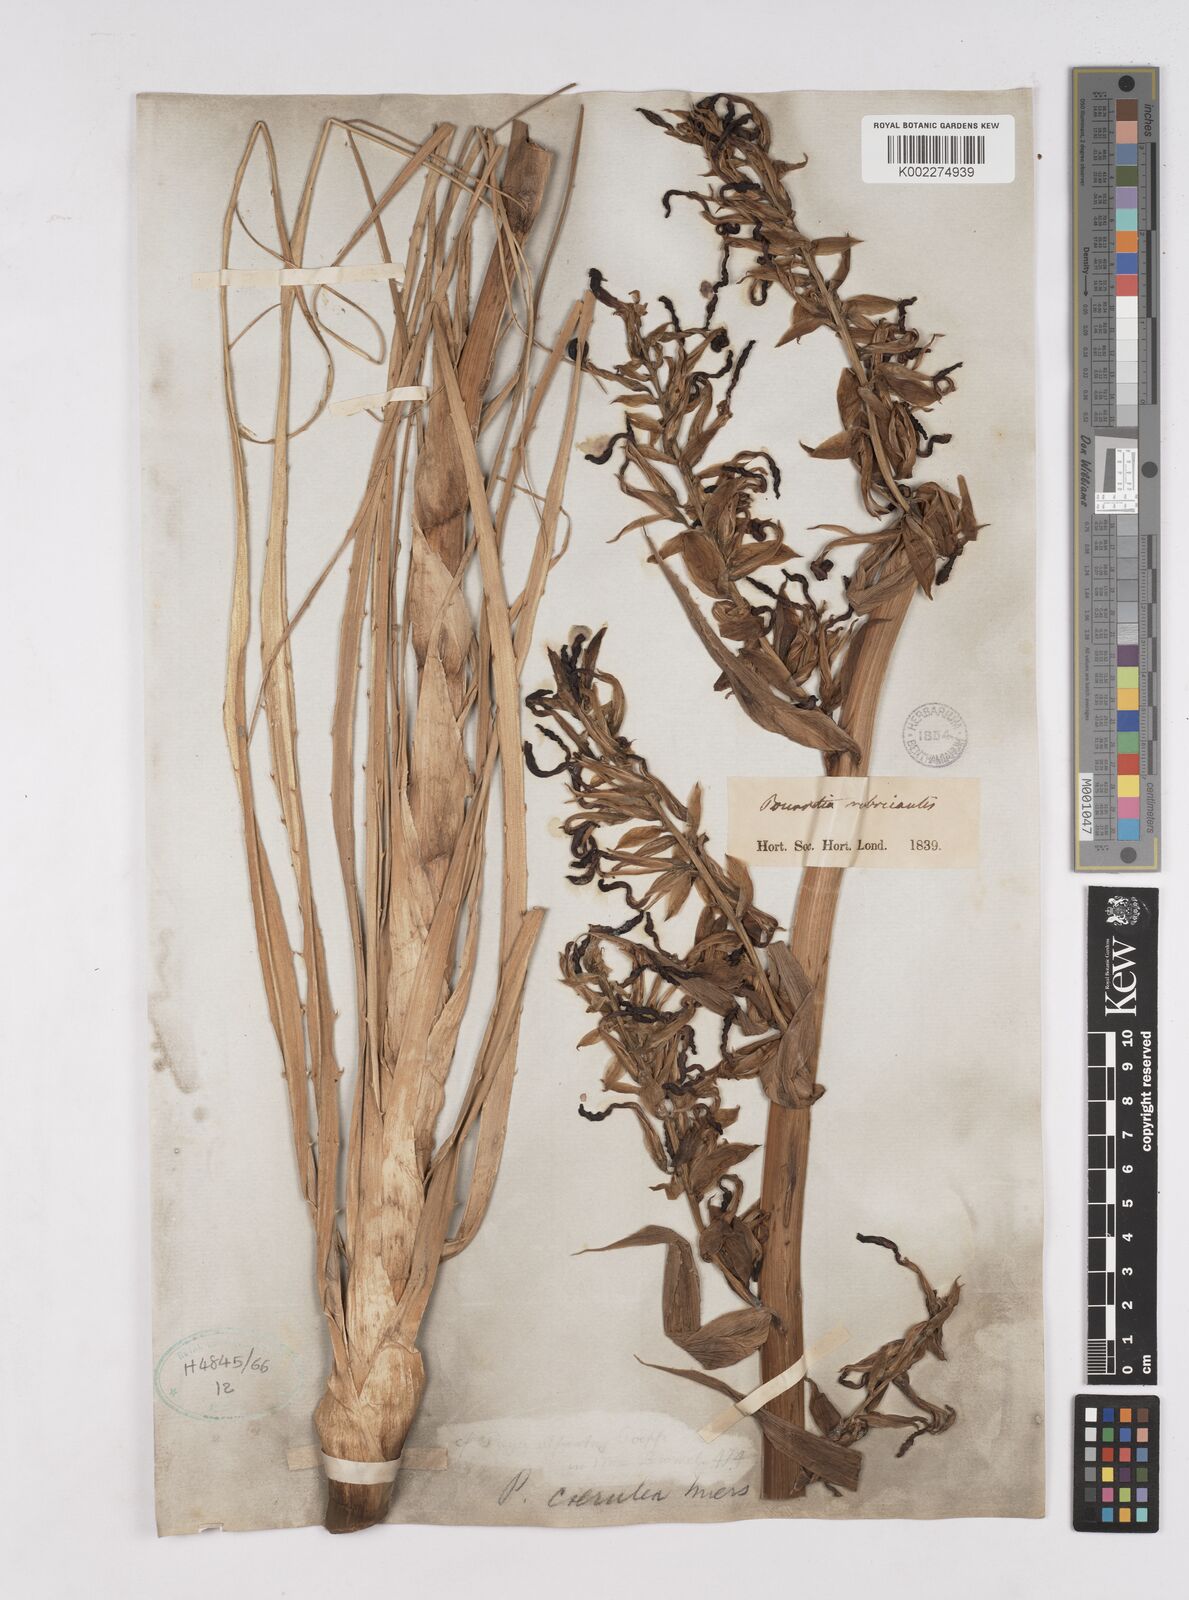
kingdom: Plantae
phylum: Tracheophyta
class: Liliopsida
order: Poales
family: Bromeliaceae
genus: Puya
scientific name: Puya coerulea
